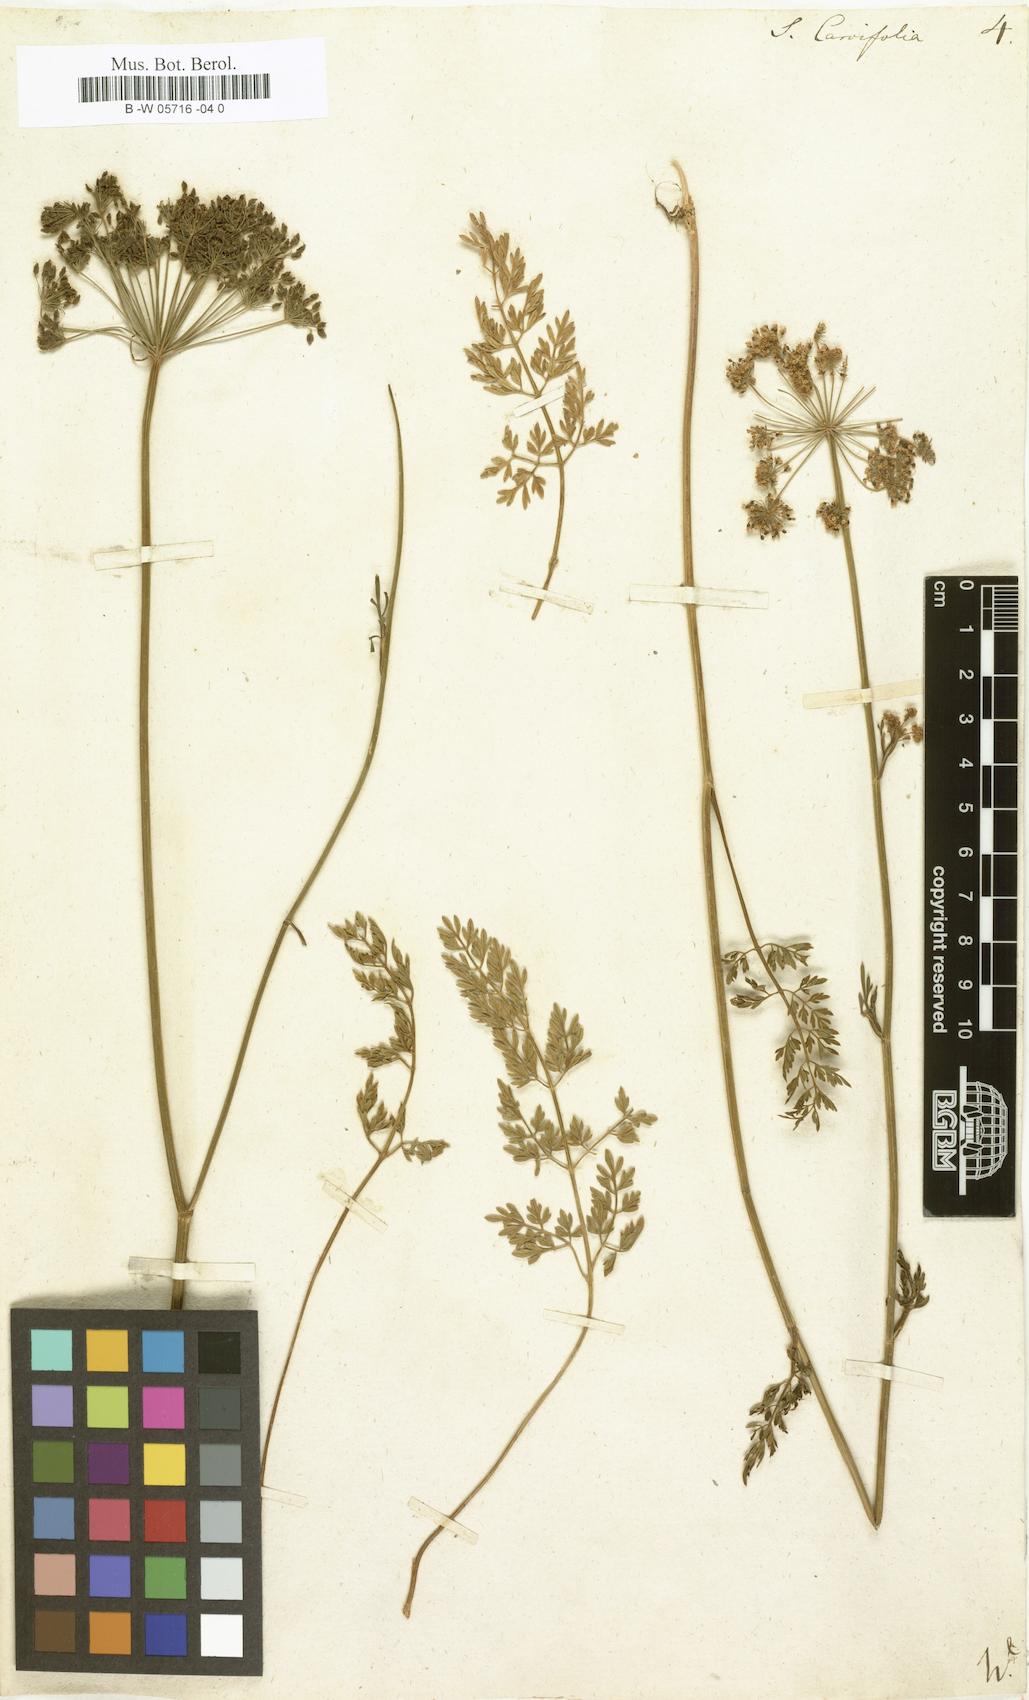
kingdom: Plantae
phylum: Tracheophyta
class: Magnoliopsida
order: Apiales
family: Apiaceae
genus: Selinum
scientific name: Selinum carvifolia
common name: Cambridge milk-parsley
